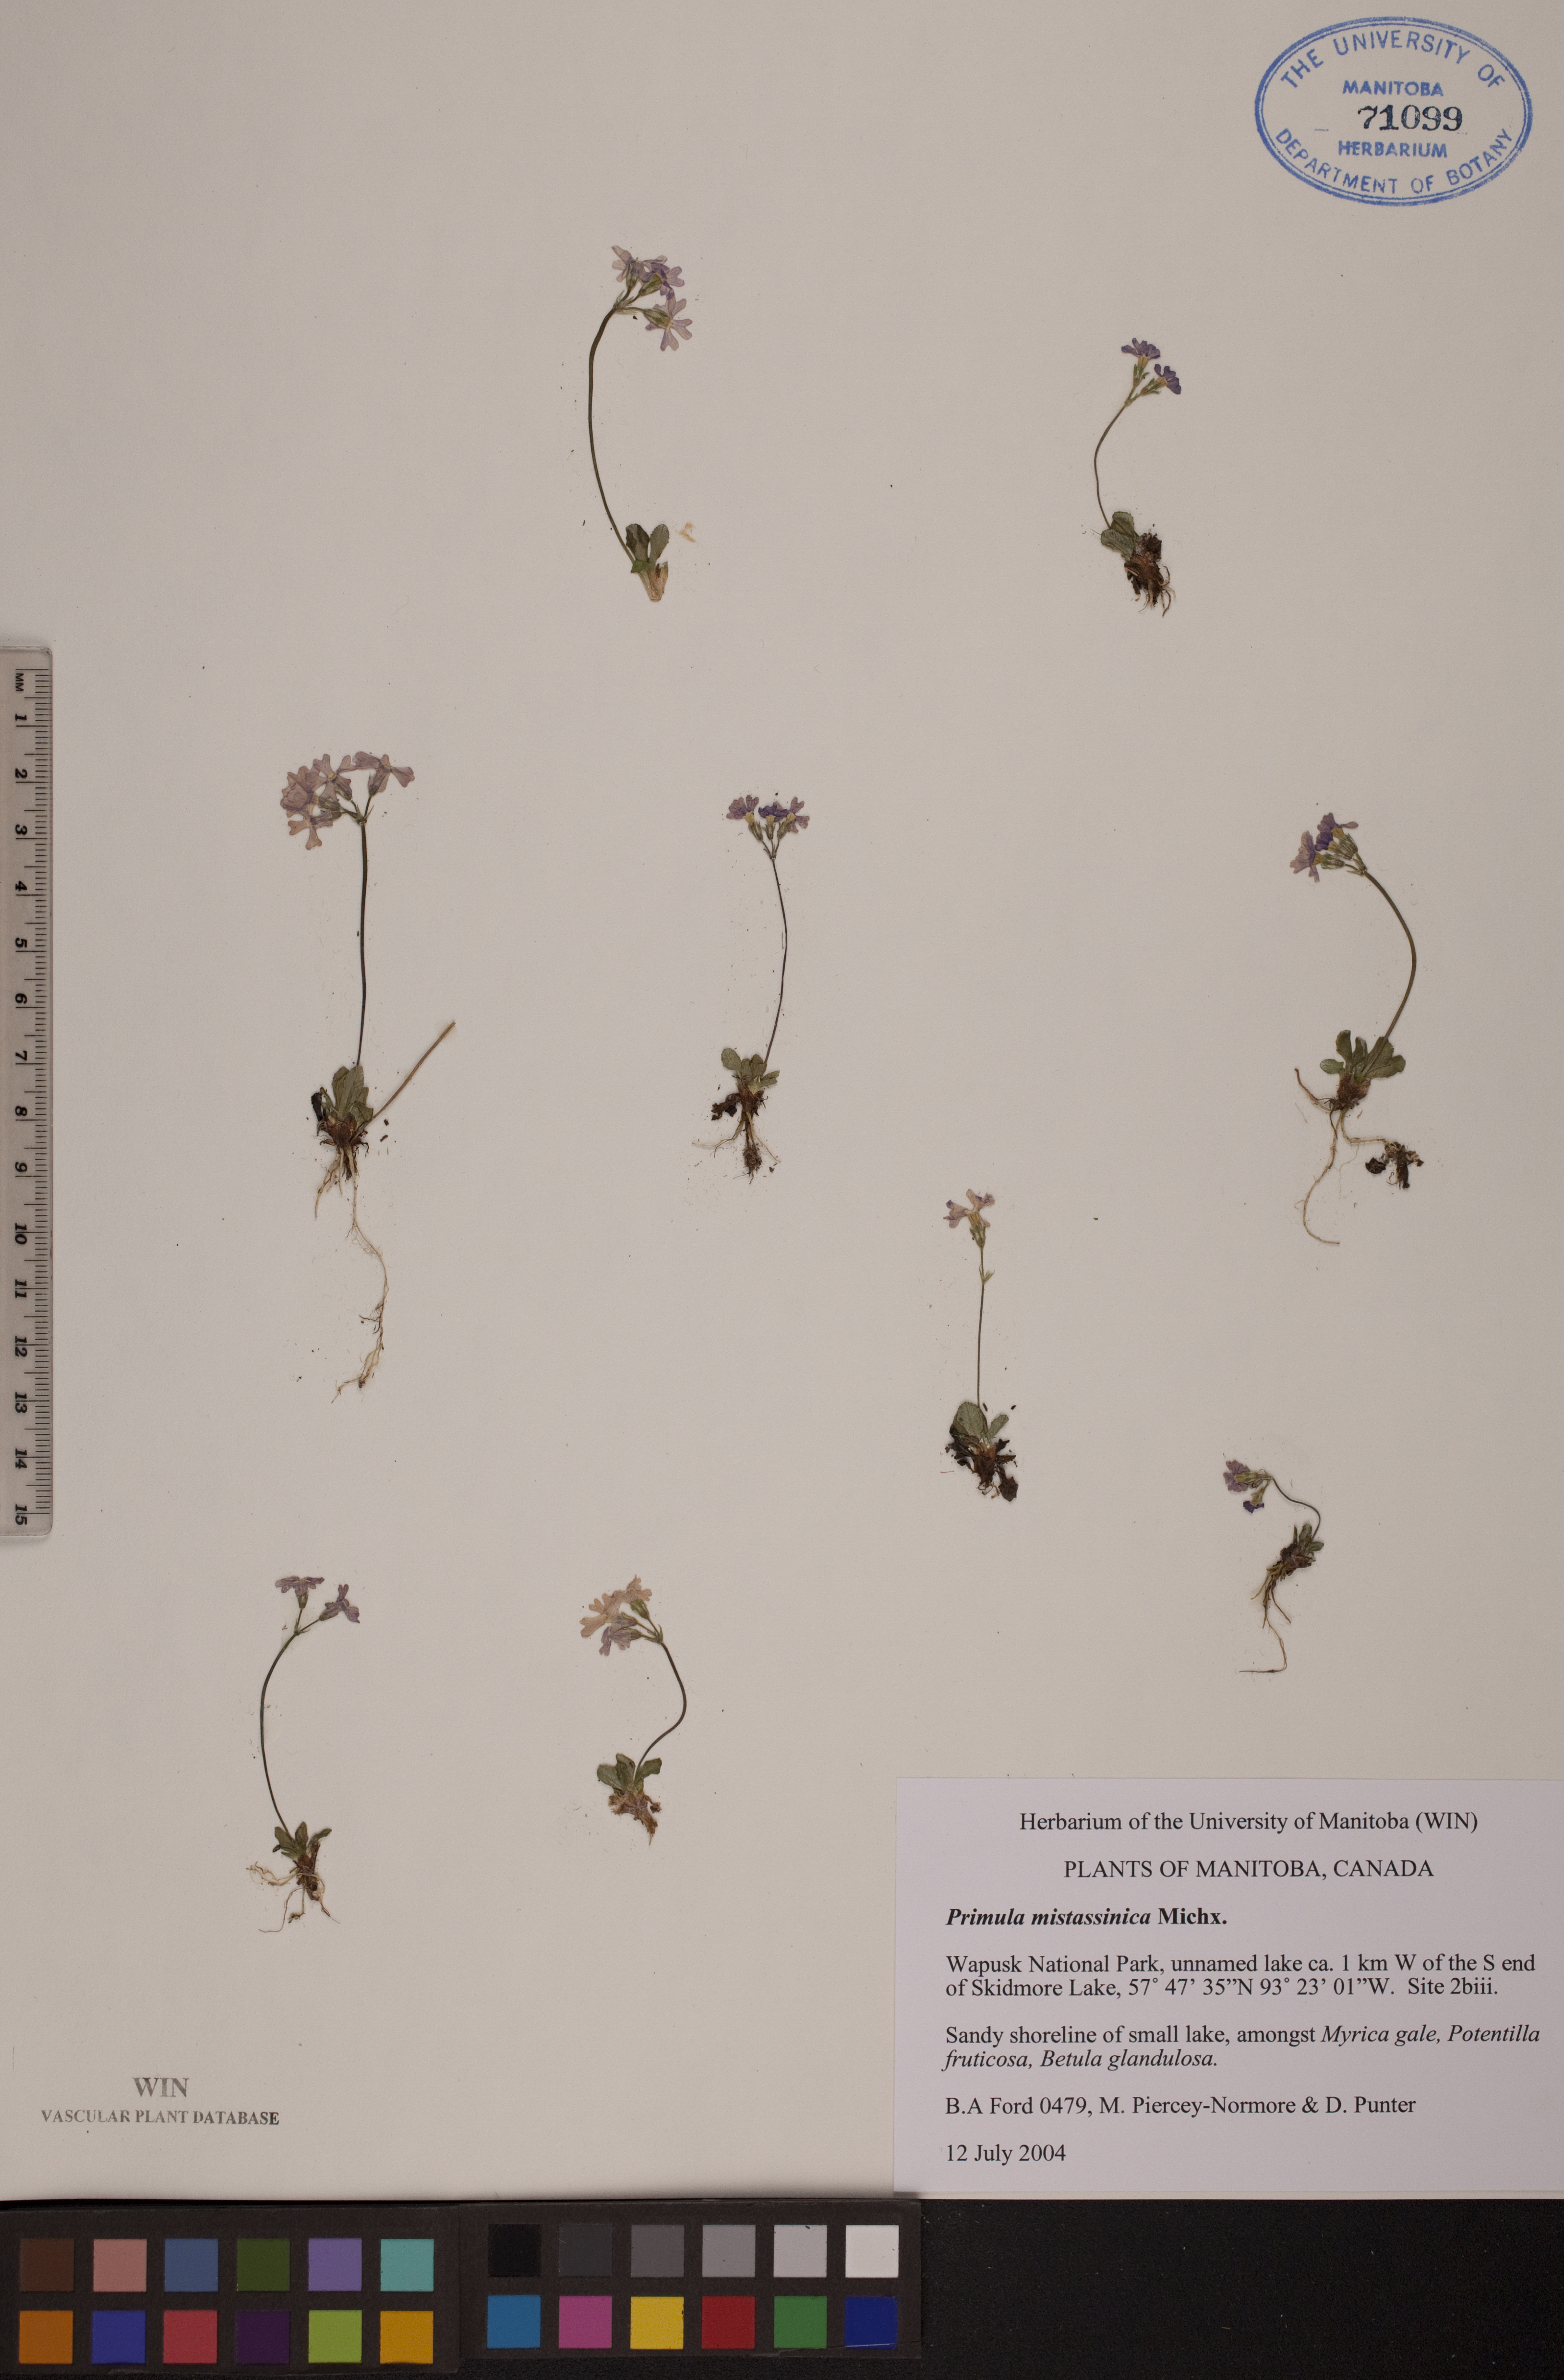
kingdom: Plantae
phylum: Tracheophyta
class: Magnoliopsida
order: Ericales
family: Primulaceae
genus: Primula
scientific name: Primula mistassinica
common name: Bird's-eye primrose
